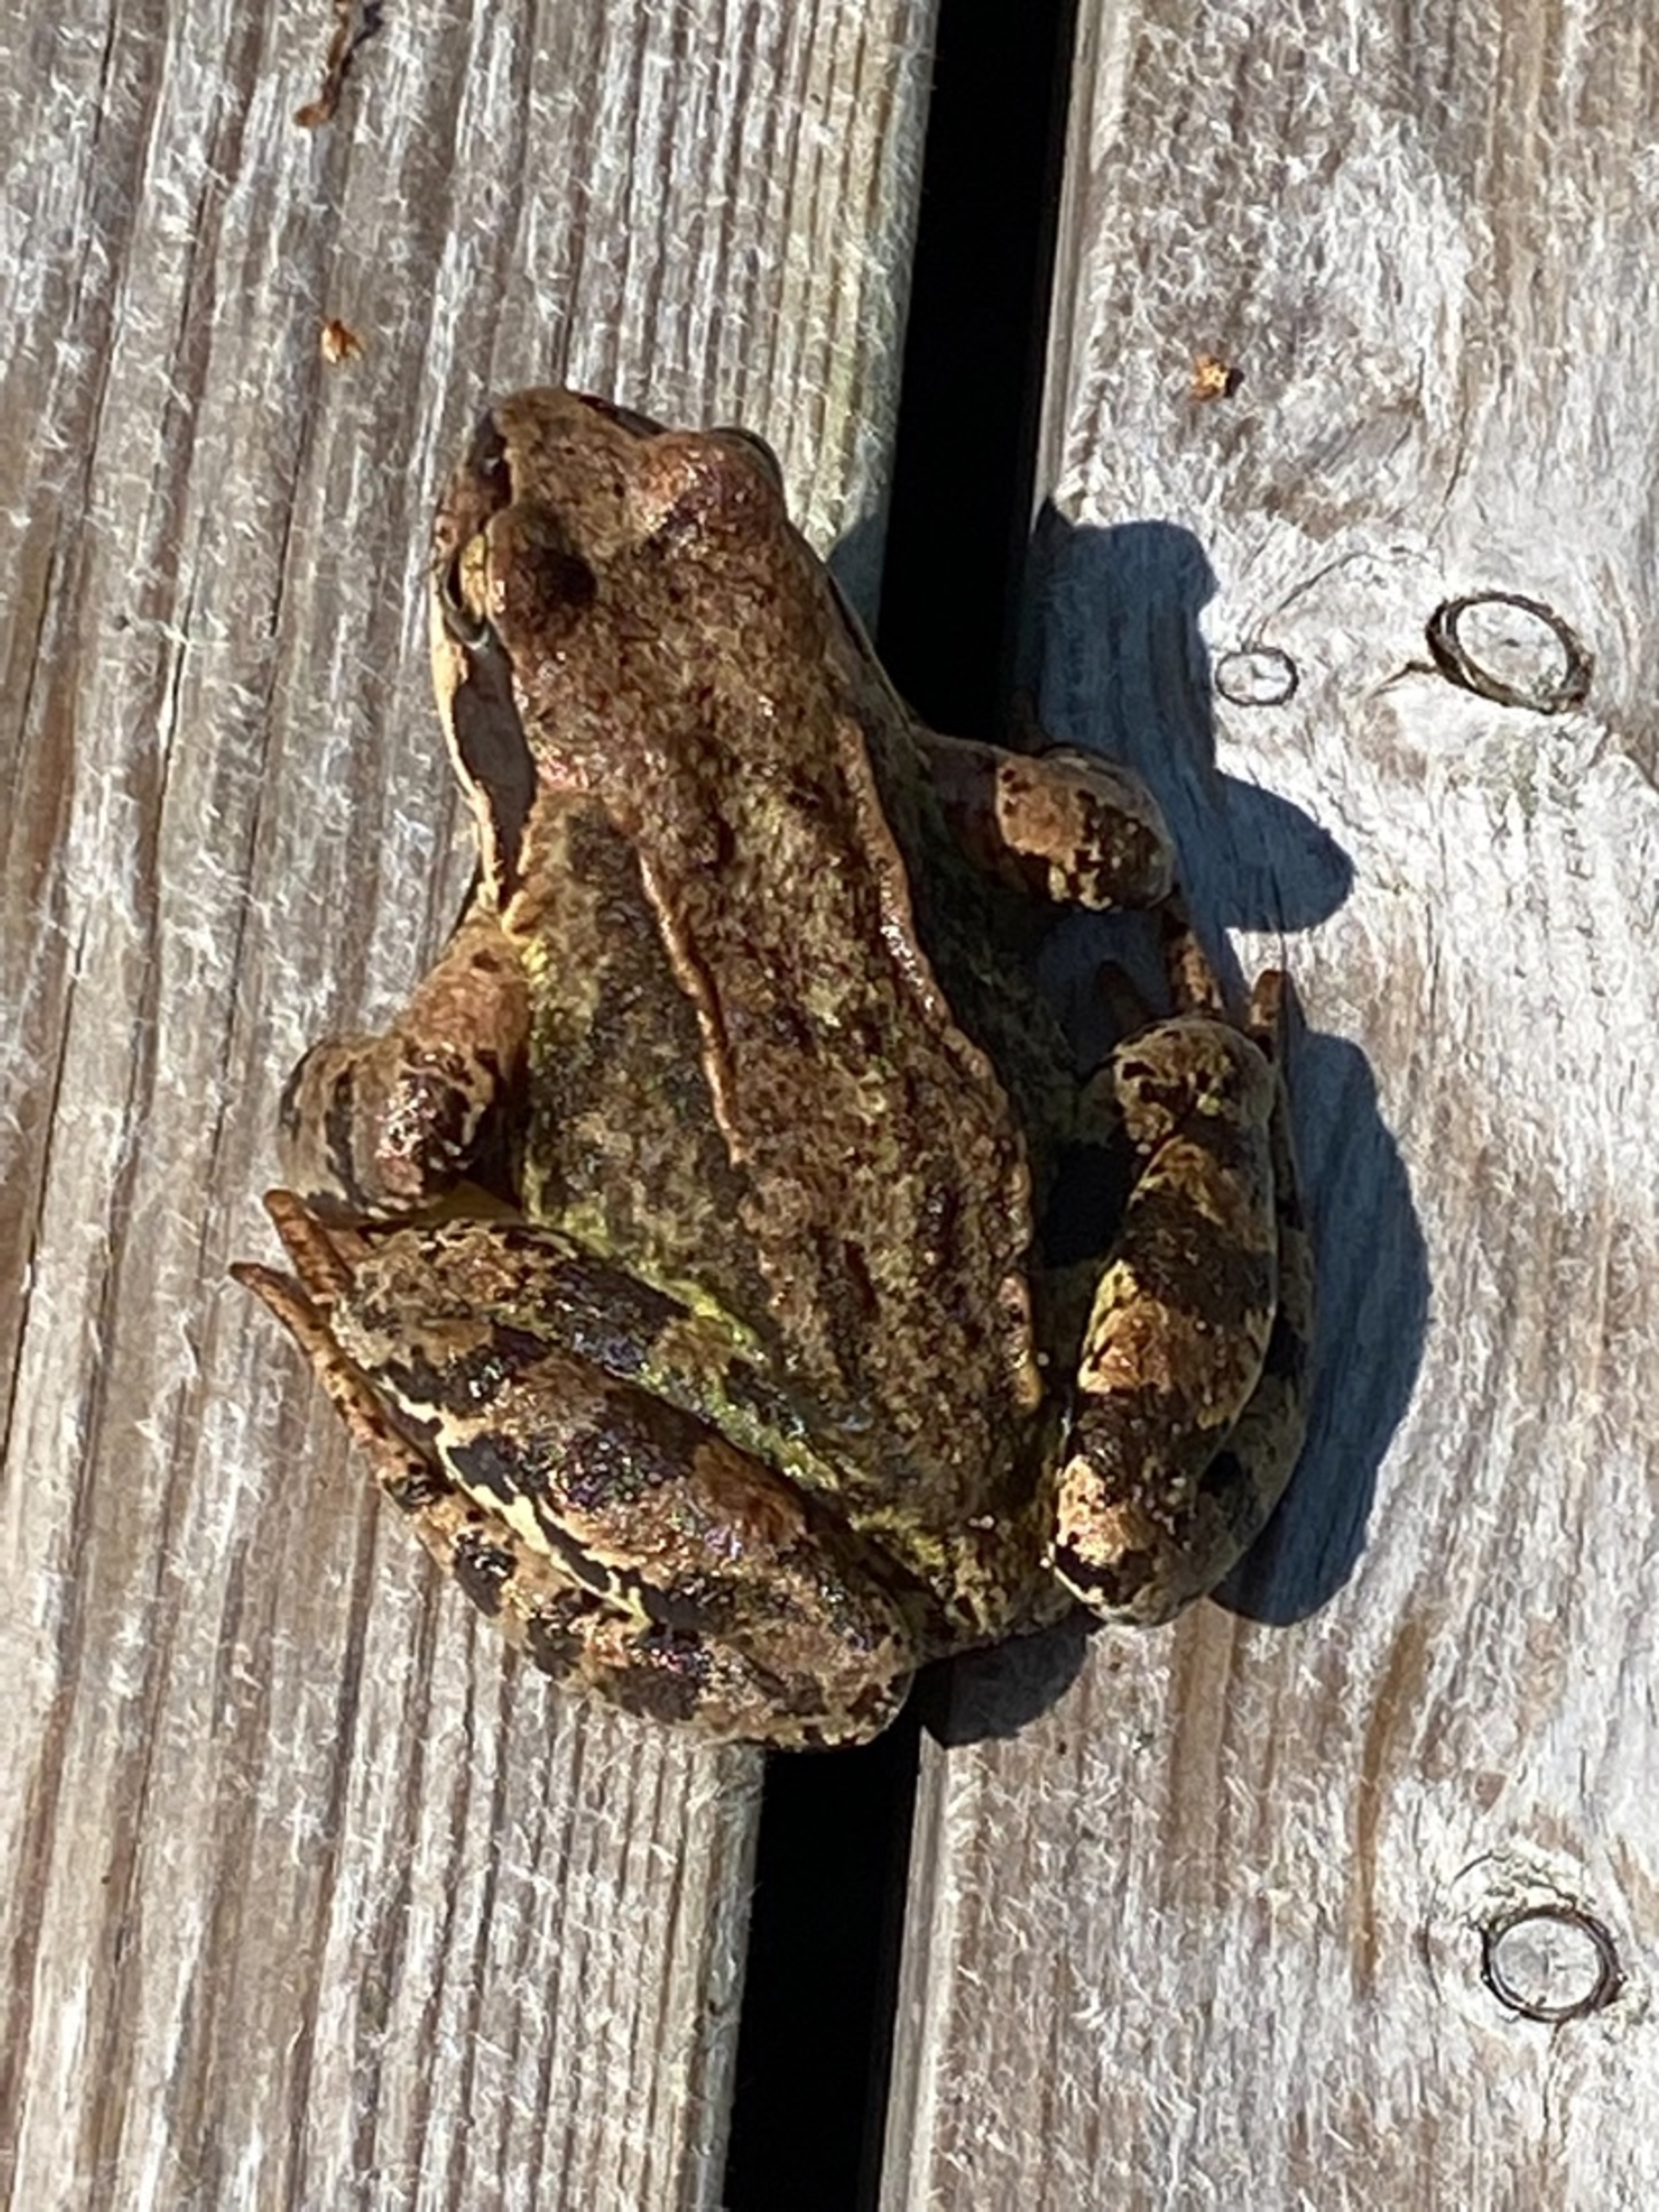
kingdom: Animalia
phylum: Chordata
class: Amphibia
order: Anura
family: Ranidae
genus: Rana
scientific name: Rana temporaria
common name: Butsnudet frø
